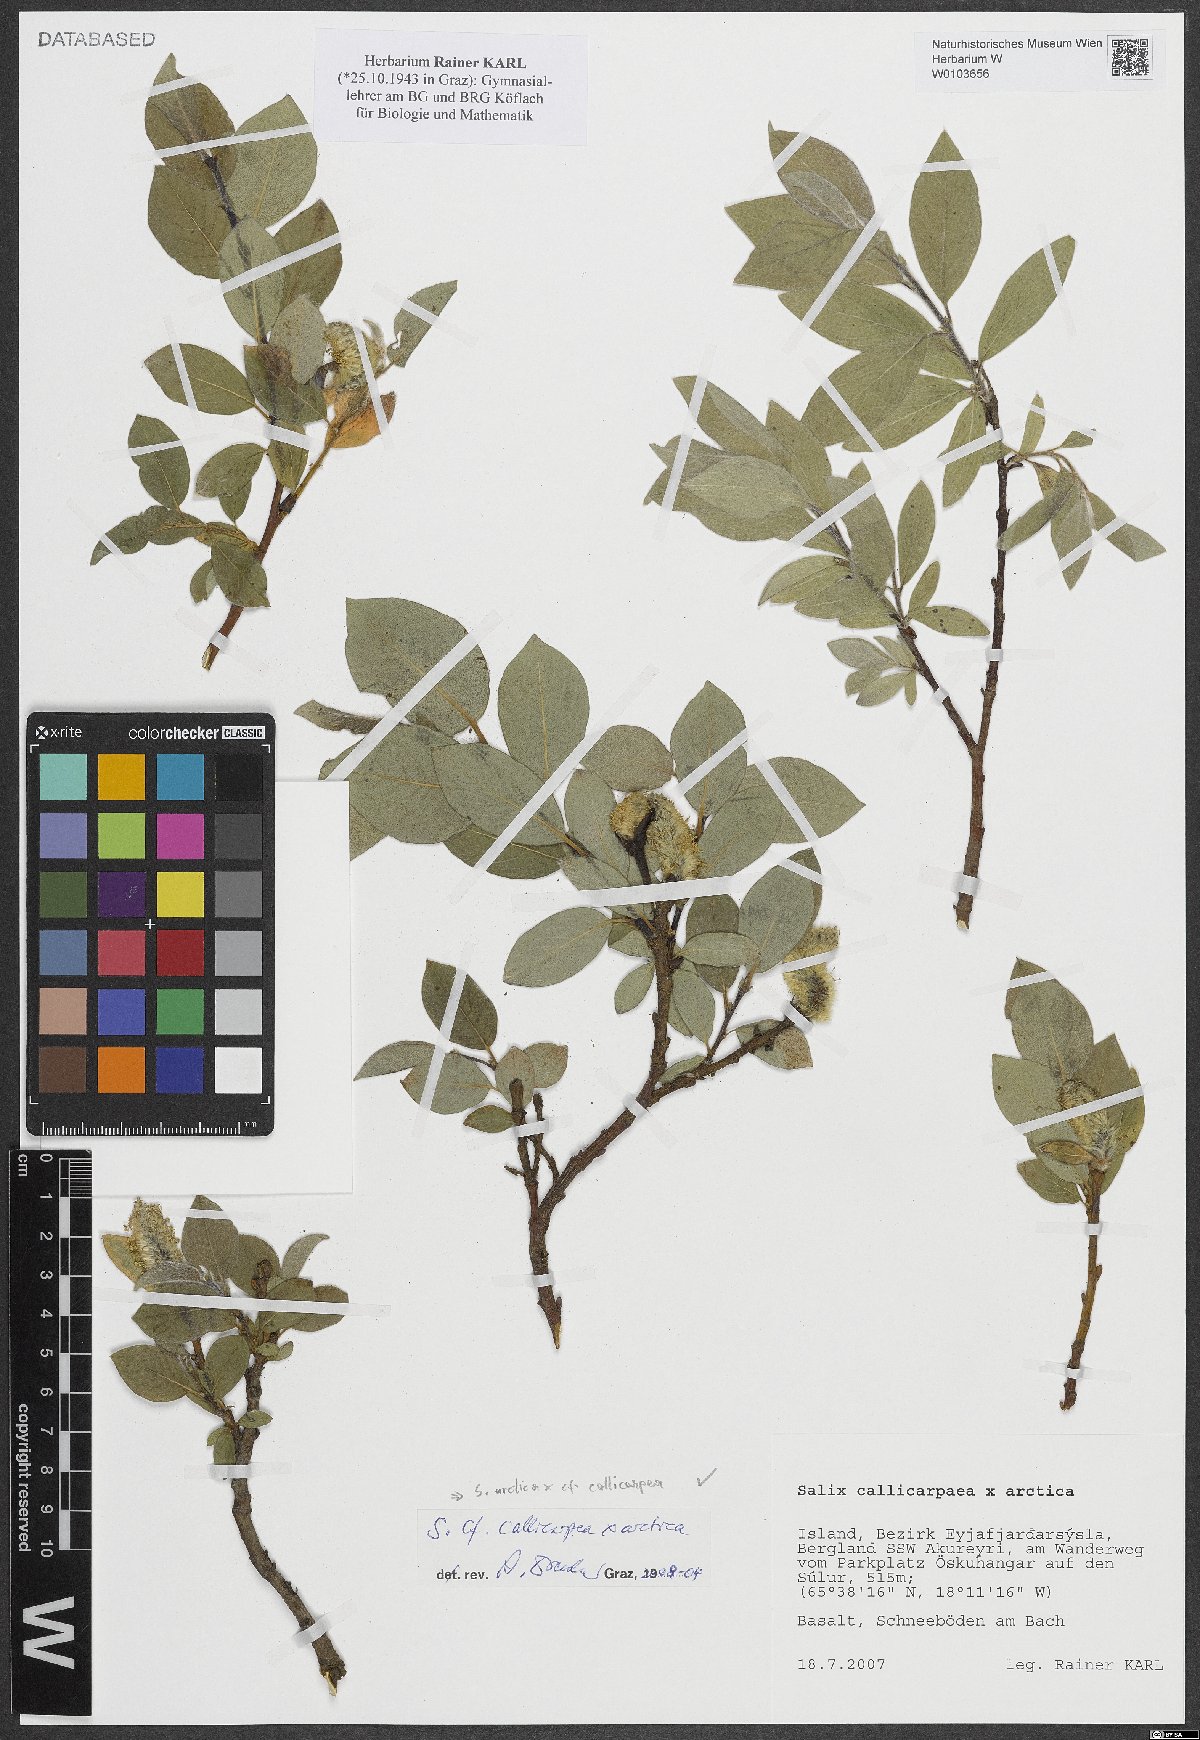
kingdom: Plantae
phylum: Tracheophyta
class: Magnoliopsida
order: Malpighiales
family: Salicaceae
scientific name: Salicaceae
